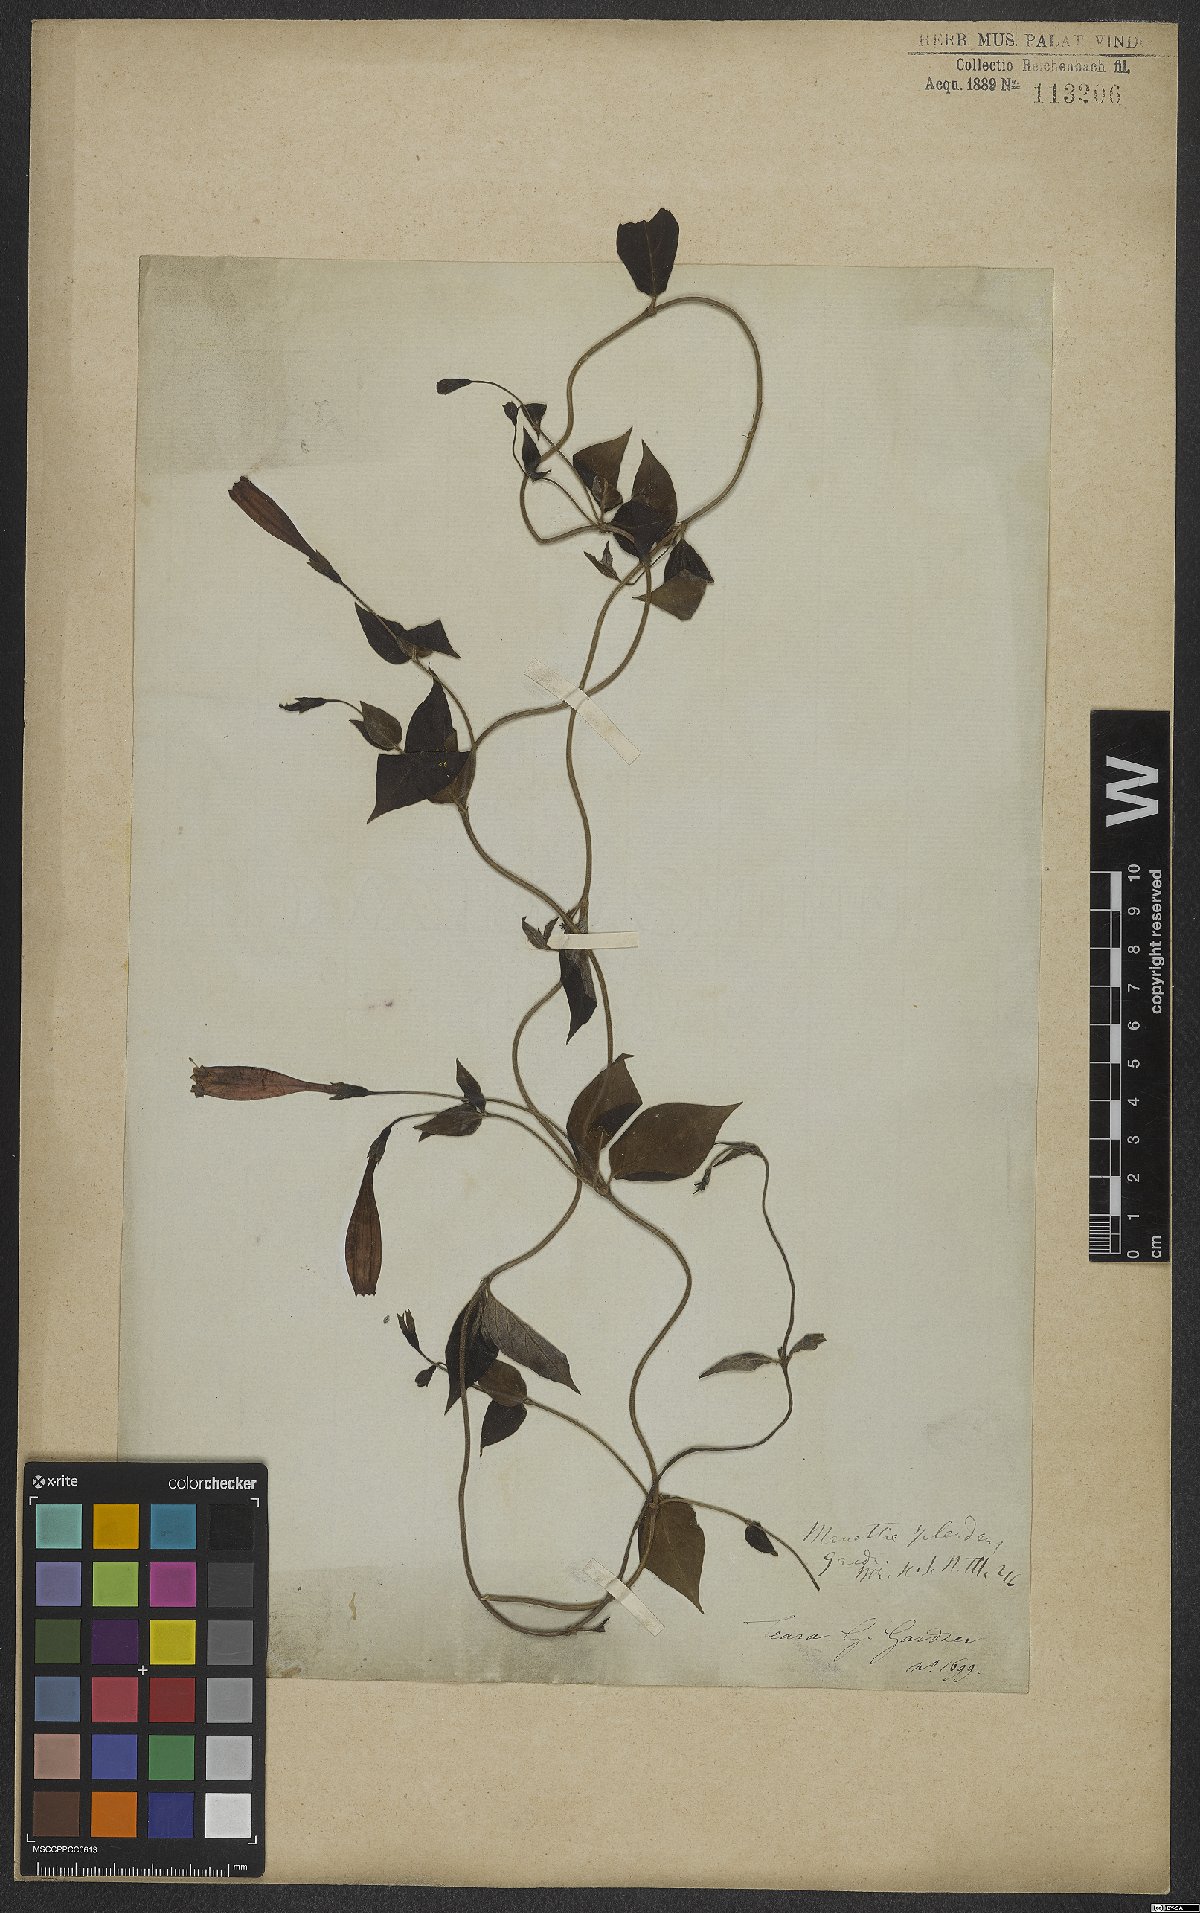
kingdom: Plantae
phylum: Tracheophyta
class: Magnoliopsida
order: Gentianales
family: Rubiaceae
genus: Manettia
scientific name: Manettia splendens
